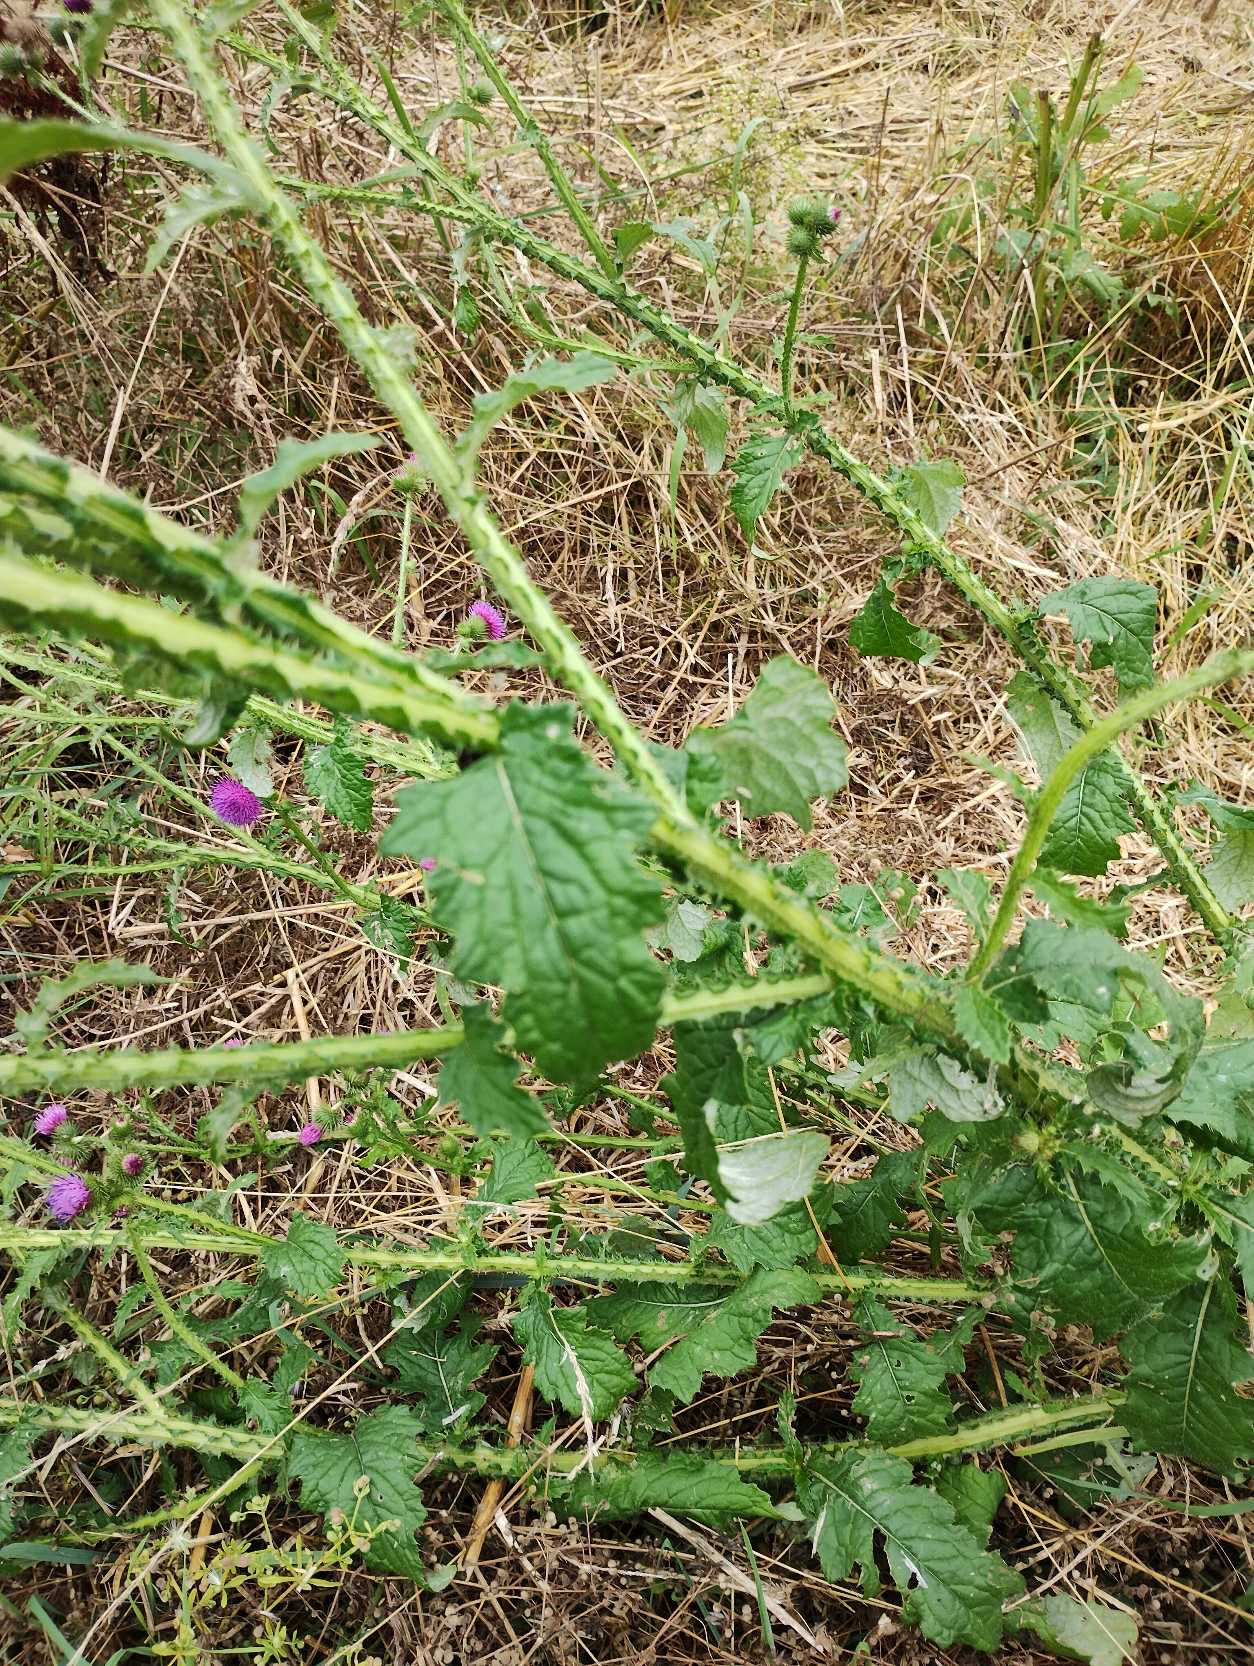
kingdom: Plantae
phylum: Tracheophyta
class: Magnoliopsida
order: Asterales
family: Asteraceae
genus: Carduus
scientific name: Carduus crispus
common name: Kruset tidsel
